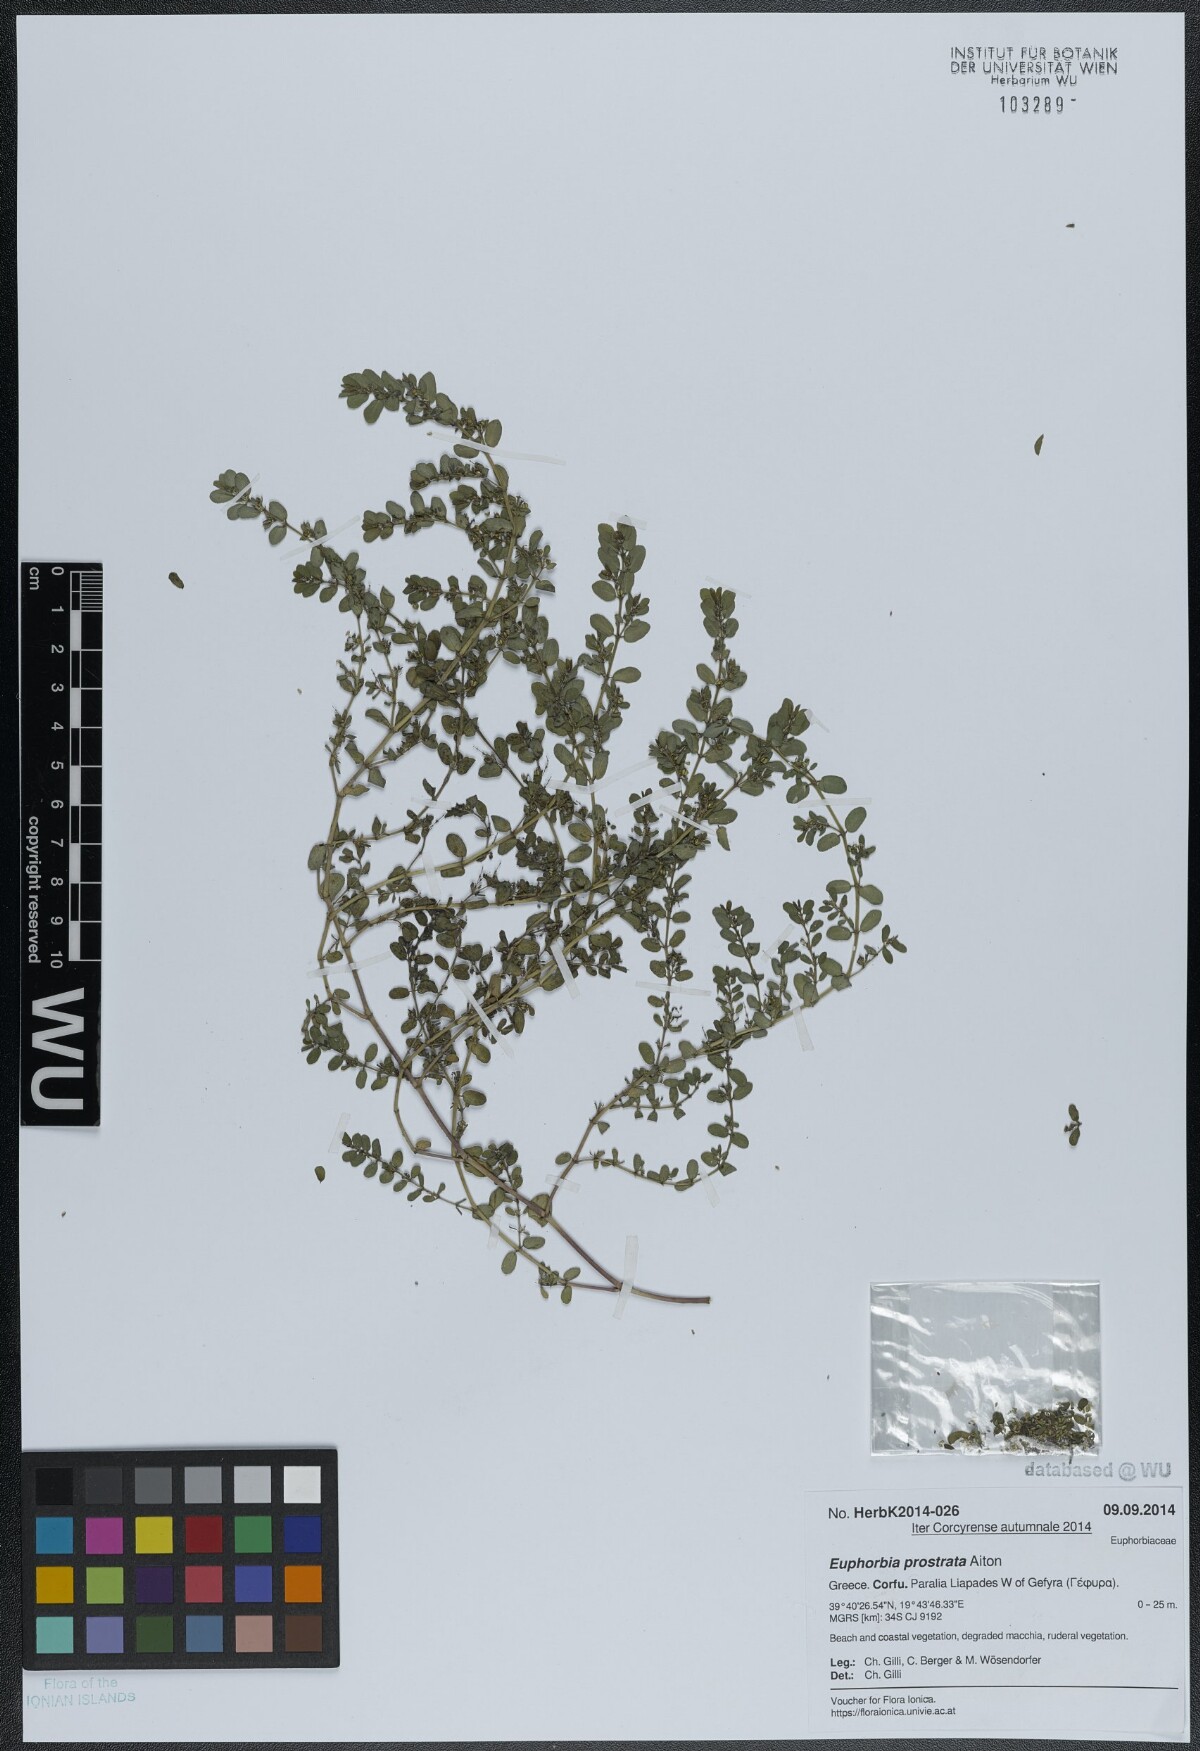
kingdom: Plantae
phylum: Tracheophyta
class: Magnoliopsida
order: Malpighiales
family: Euphorbiaceae
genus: Euphorbia
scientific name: Euphorbia prostrata
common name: Prostrate sandmat
